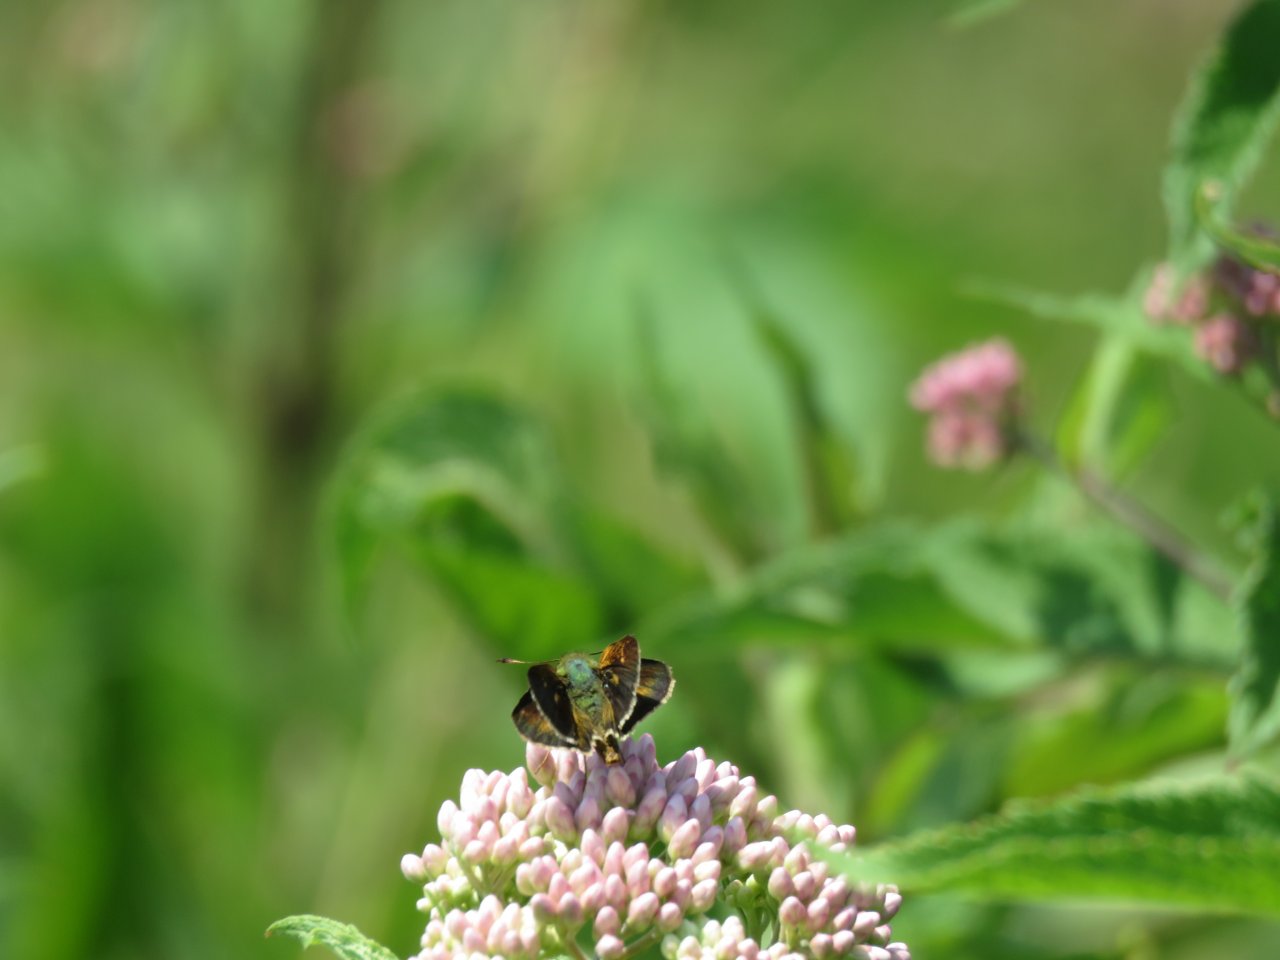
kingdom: Animalia
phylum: Arthropoda
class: Insecta
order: Lepidoptera
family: Hesperiidae
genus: Polites
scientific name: Polites egeremet
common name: Northern Broken-Dash
